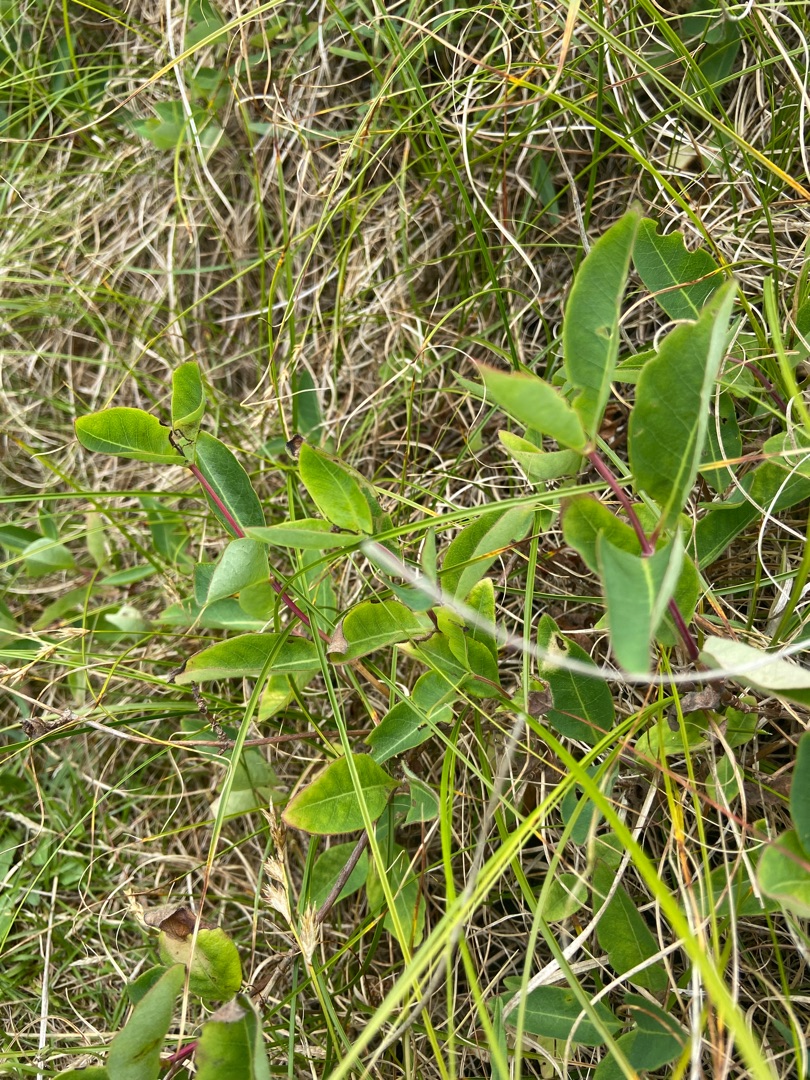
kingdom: Plantae
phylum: Tracheophyta
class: Magnoliopsida
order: Dipsacales
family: Caprifoliaceae
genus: Lonicera
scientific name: Lonicera periclymenum
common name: Almindelig gedeblad
